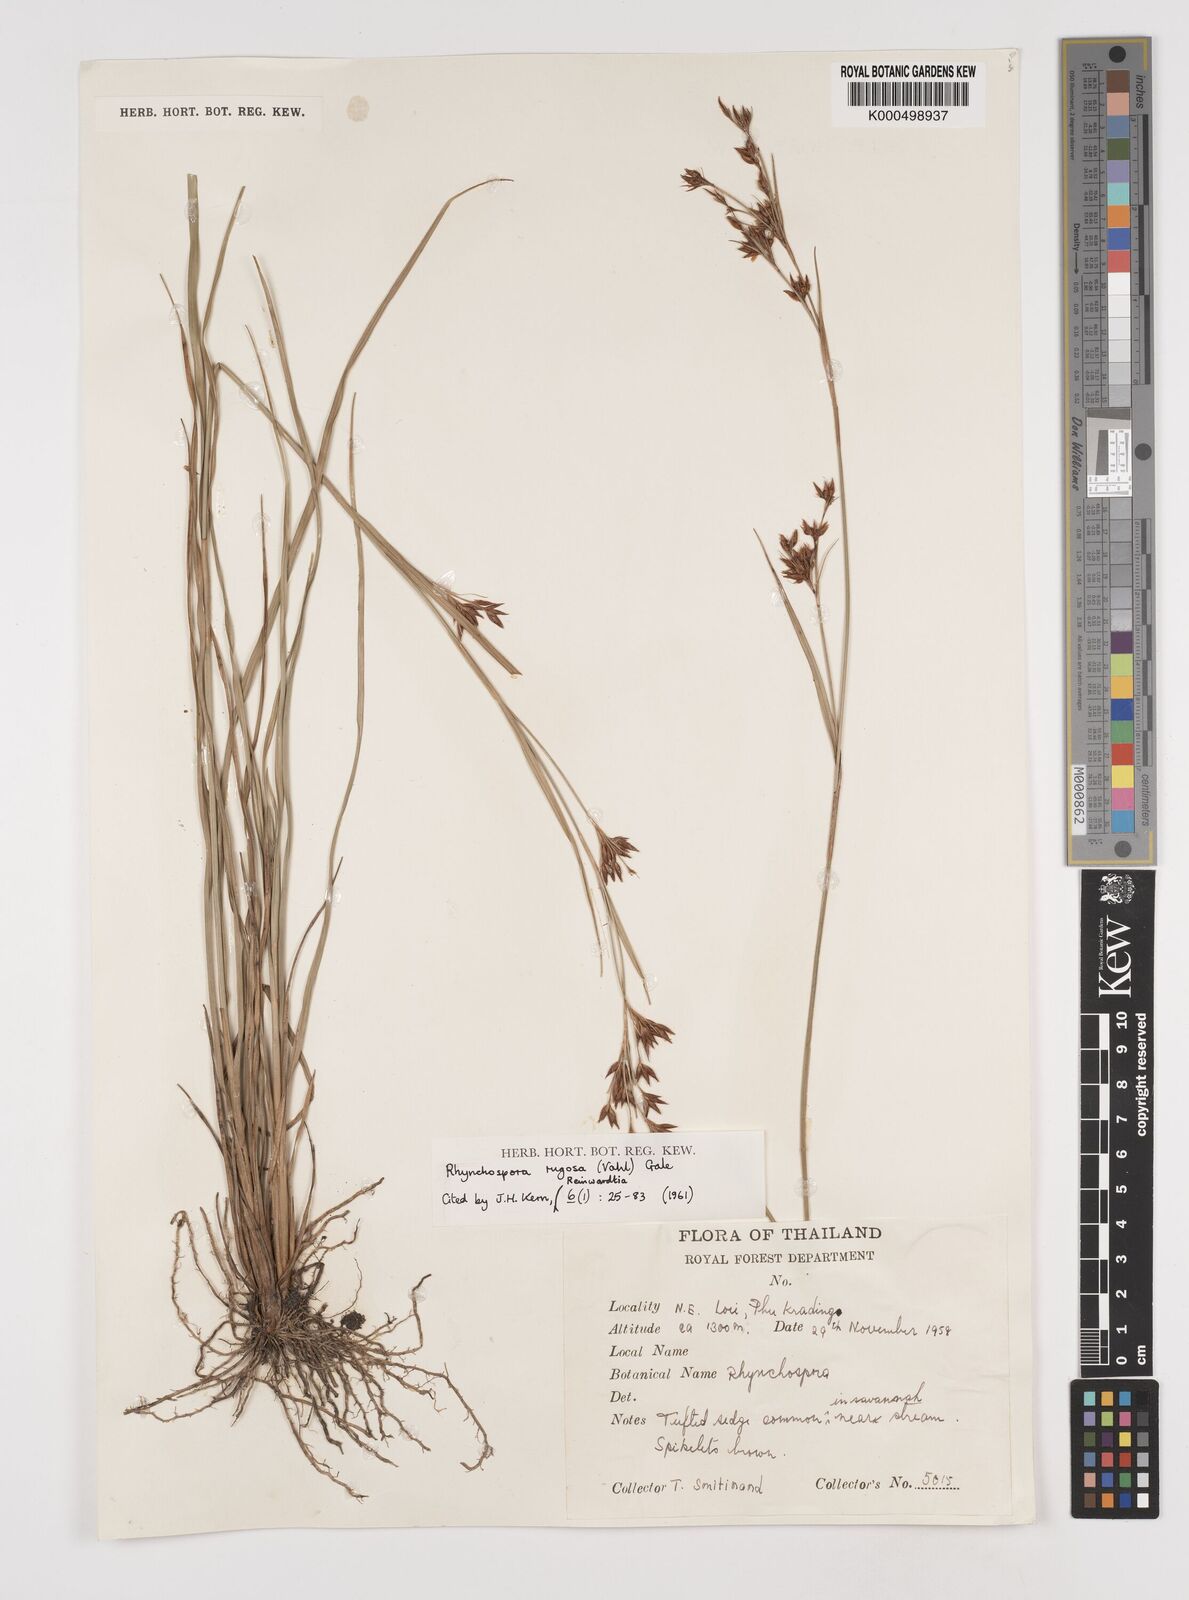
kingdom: Plantae
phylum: Tracheophyta
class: Liliopsida
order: Poales
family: Cyperaceae
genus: Rhynchospora
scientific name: Rhynchospora rugosa
